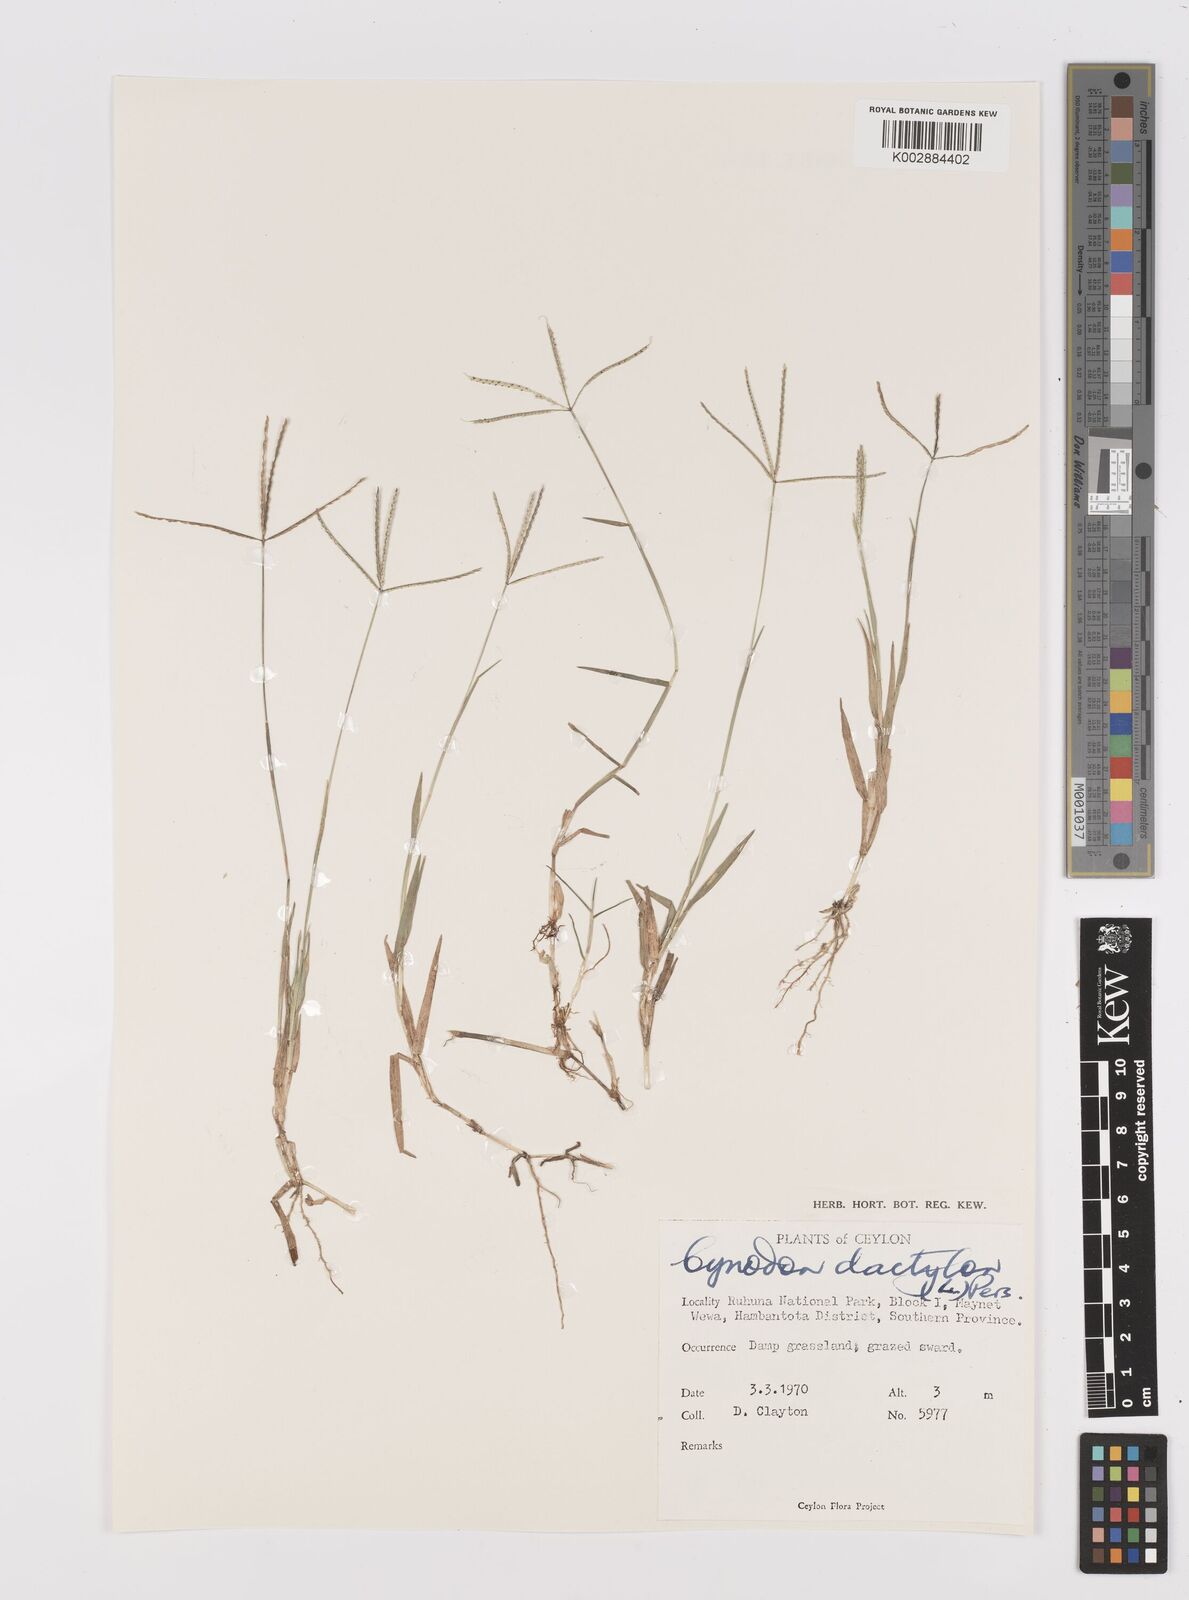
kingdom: Plantae
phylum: Tracheophyta
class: Liliopsida
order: Poales
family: Poaceae
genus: Cynodon
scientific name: Cynodon dactylon
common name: Bermuda grass
